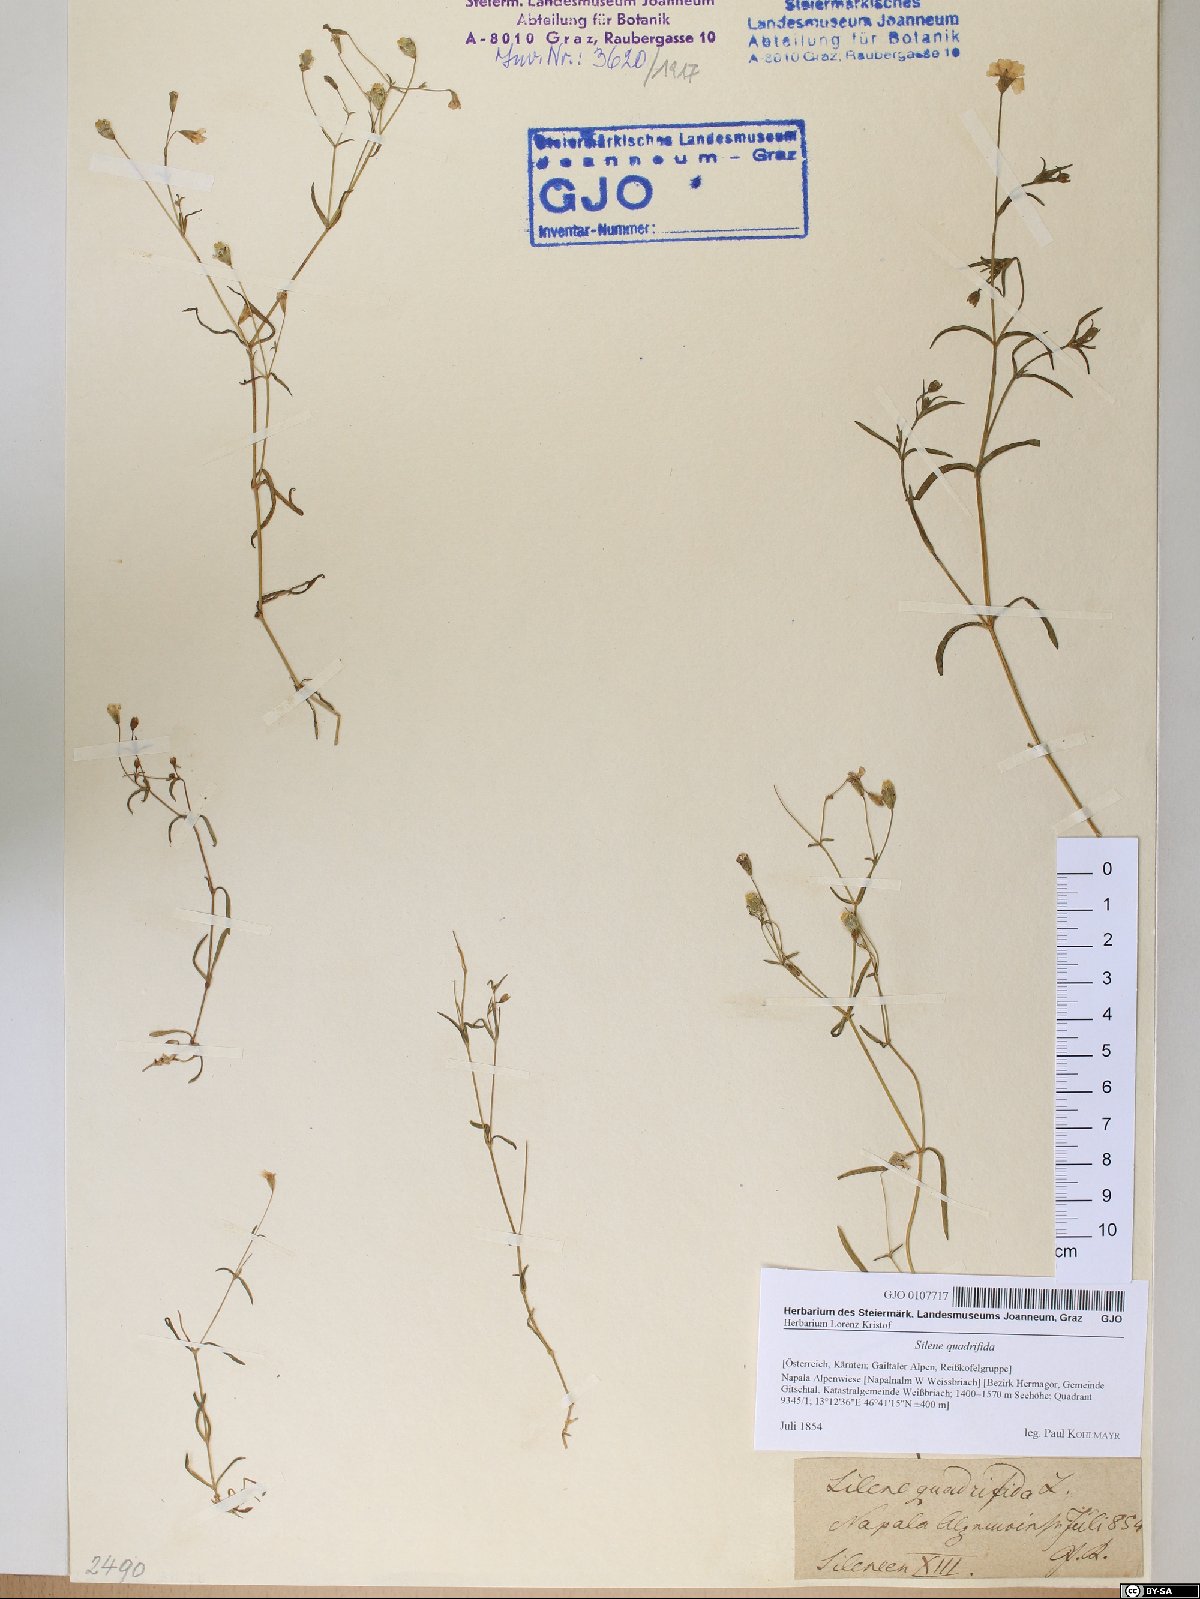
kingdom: Plantae
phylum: Tracheophyta
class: Magnoliopsida
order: Caryophyllales
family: Caryophyllaceae
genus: Heliosperma
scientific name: Heliosperma alpestre
